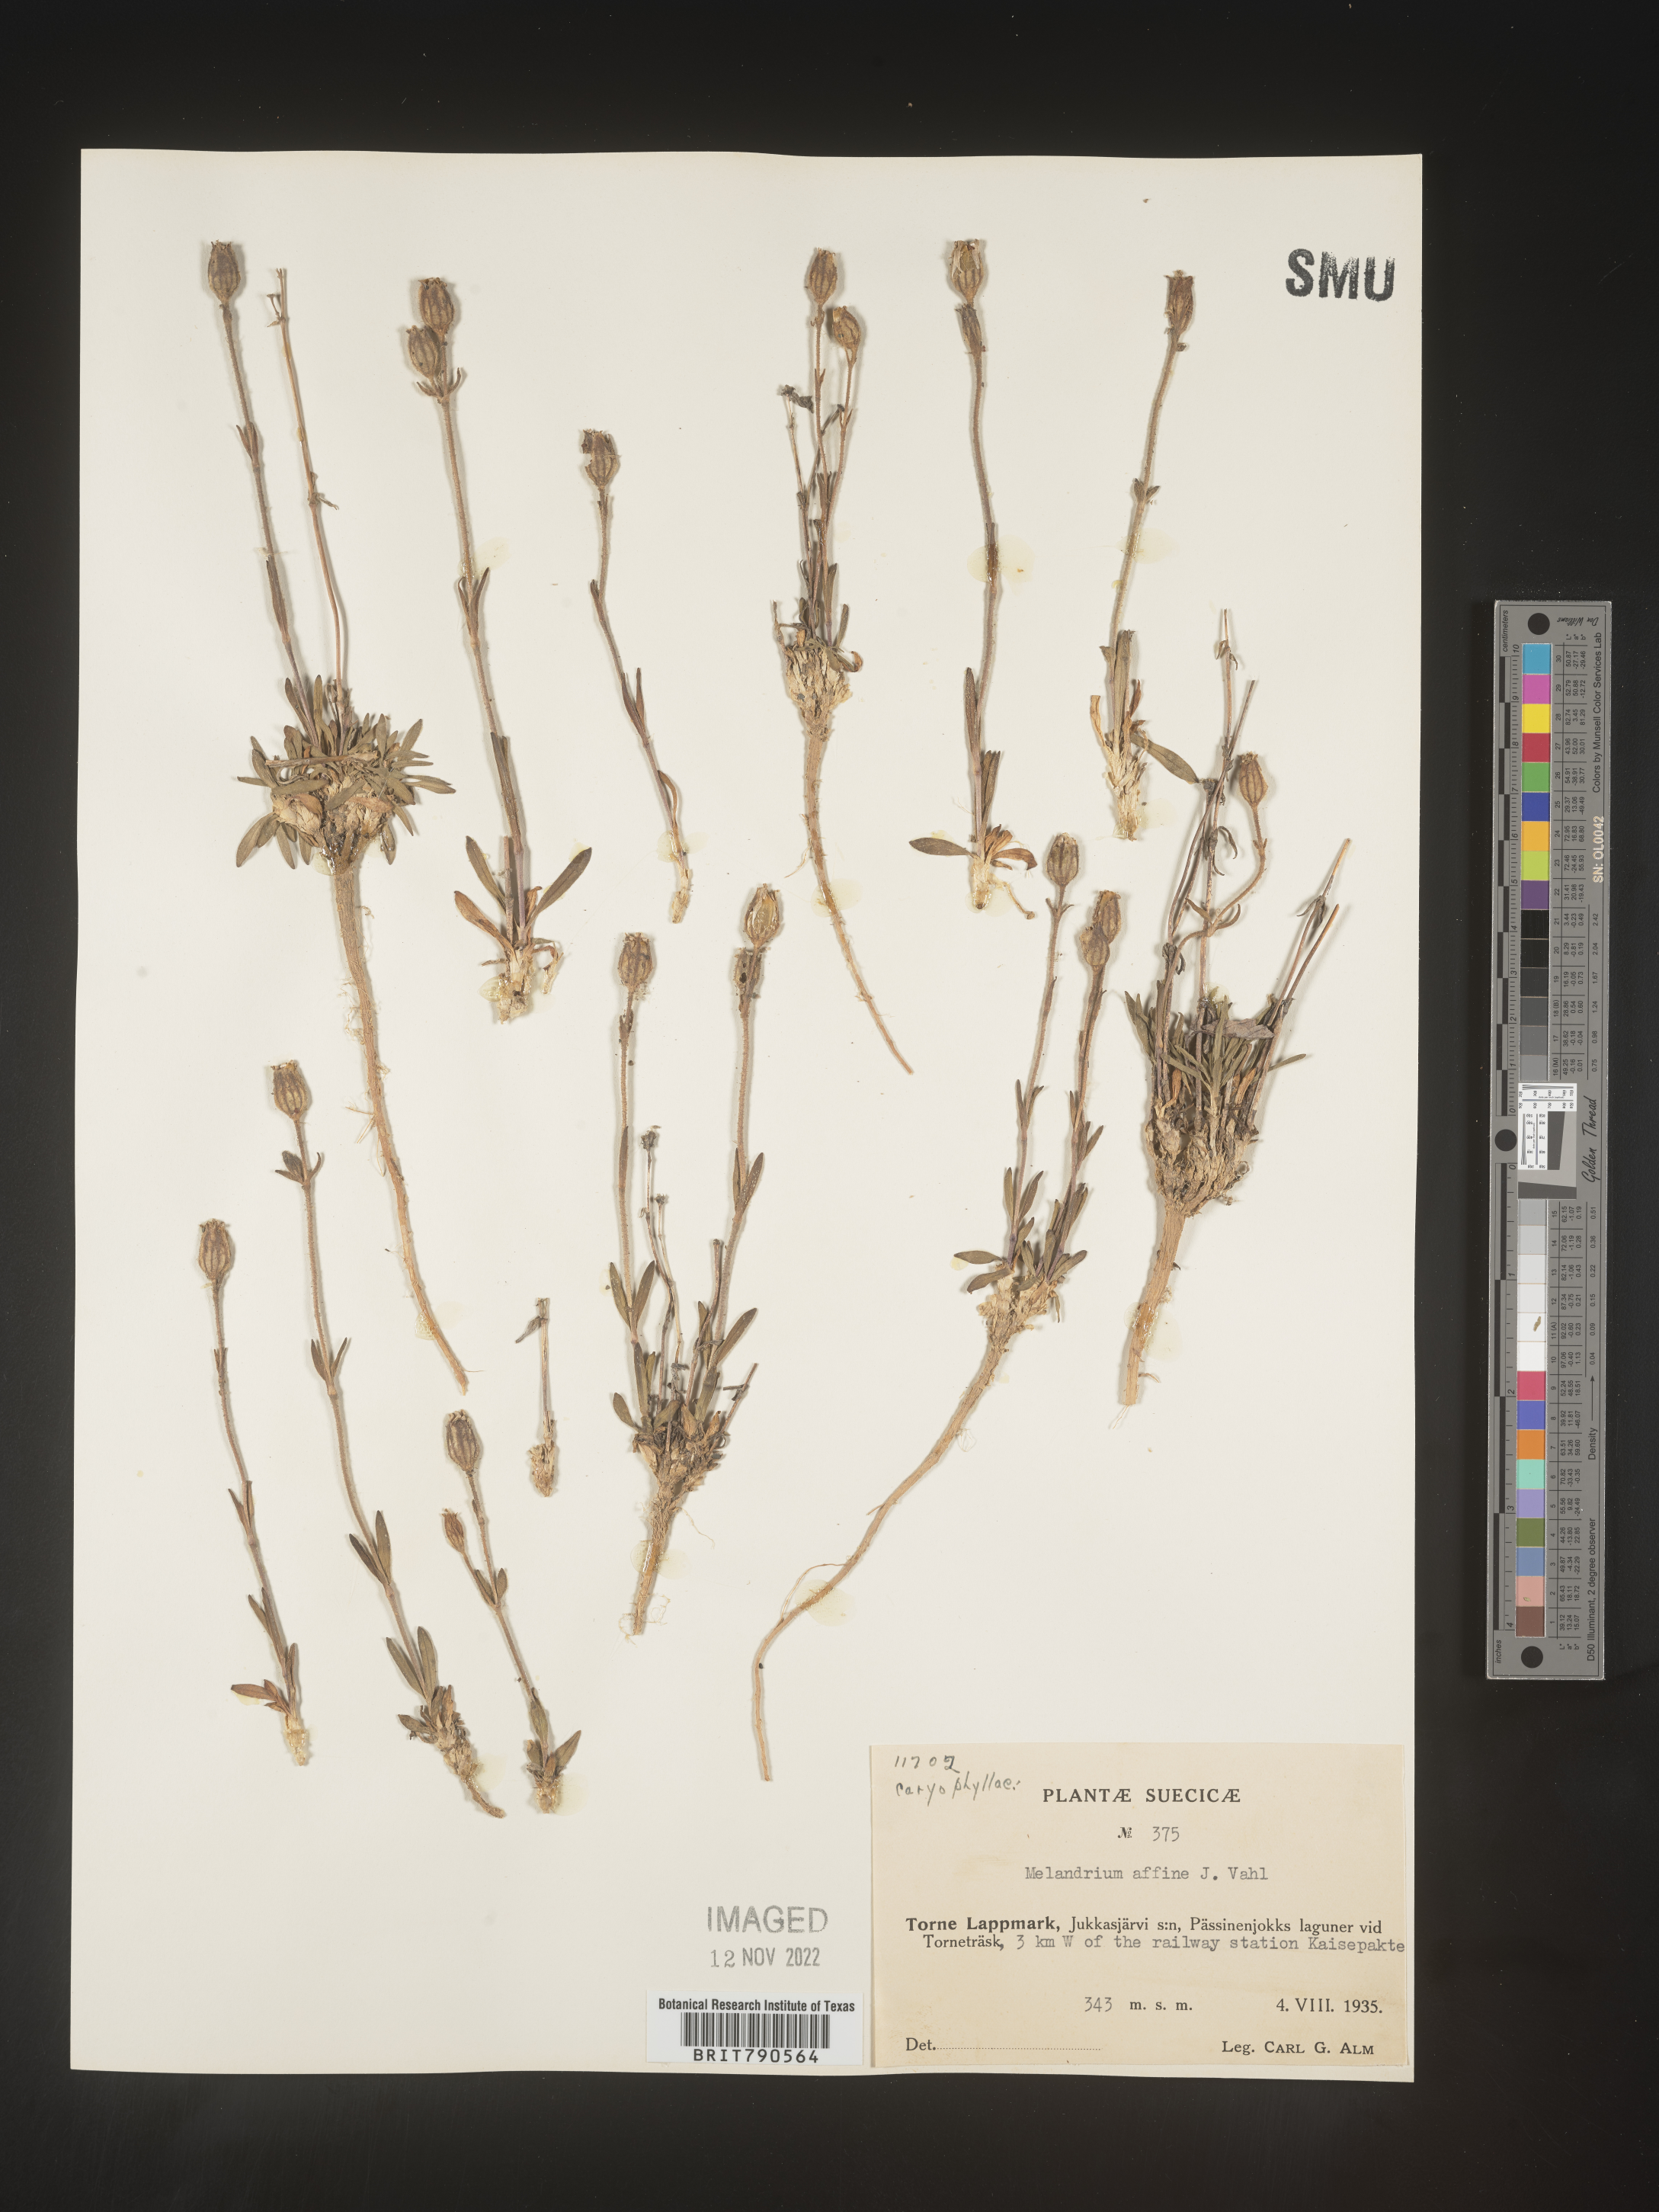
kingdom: Plantae
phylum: Tracheophyta
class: Magnoliopsida
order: Caryophyllales
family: Caryophyllaceae
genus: Silene
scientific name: Silene
